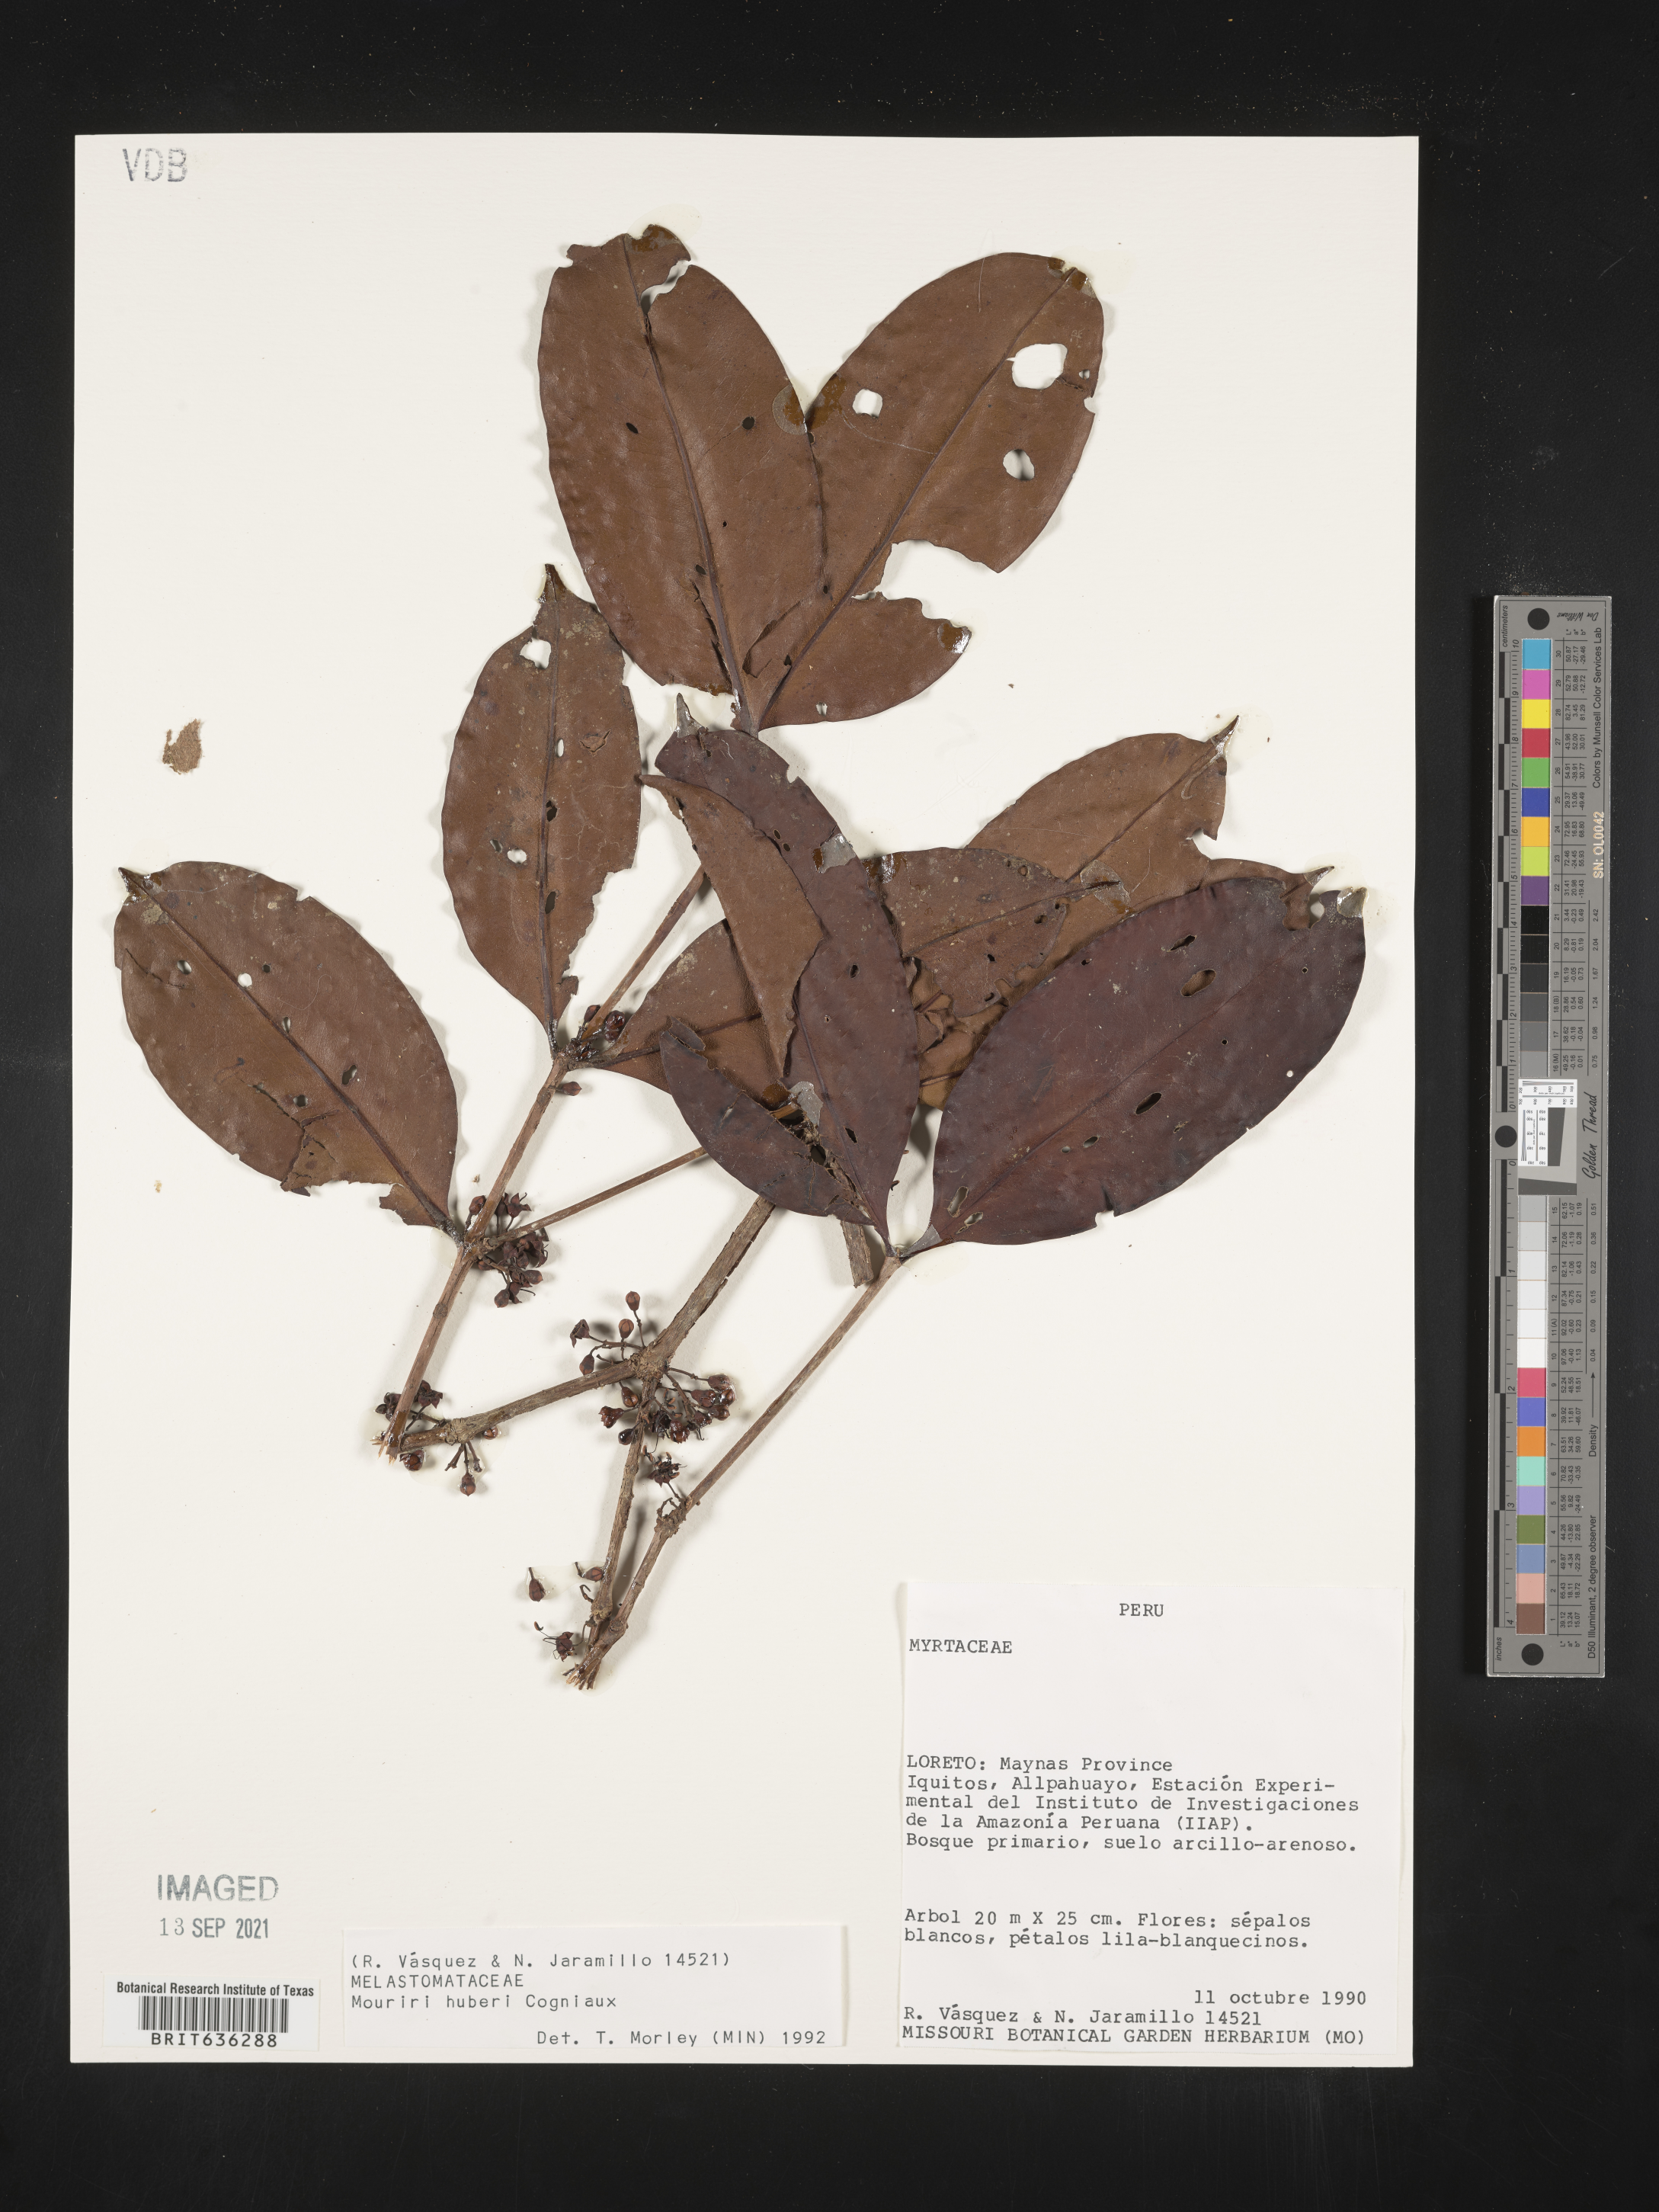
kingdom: Plantae
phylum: Tracheophyta
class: Magnoliopsida
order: Myrtales
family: Melastomataceae
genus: Mouriri
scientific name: Mouriri
